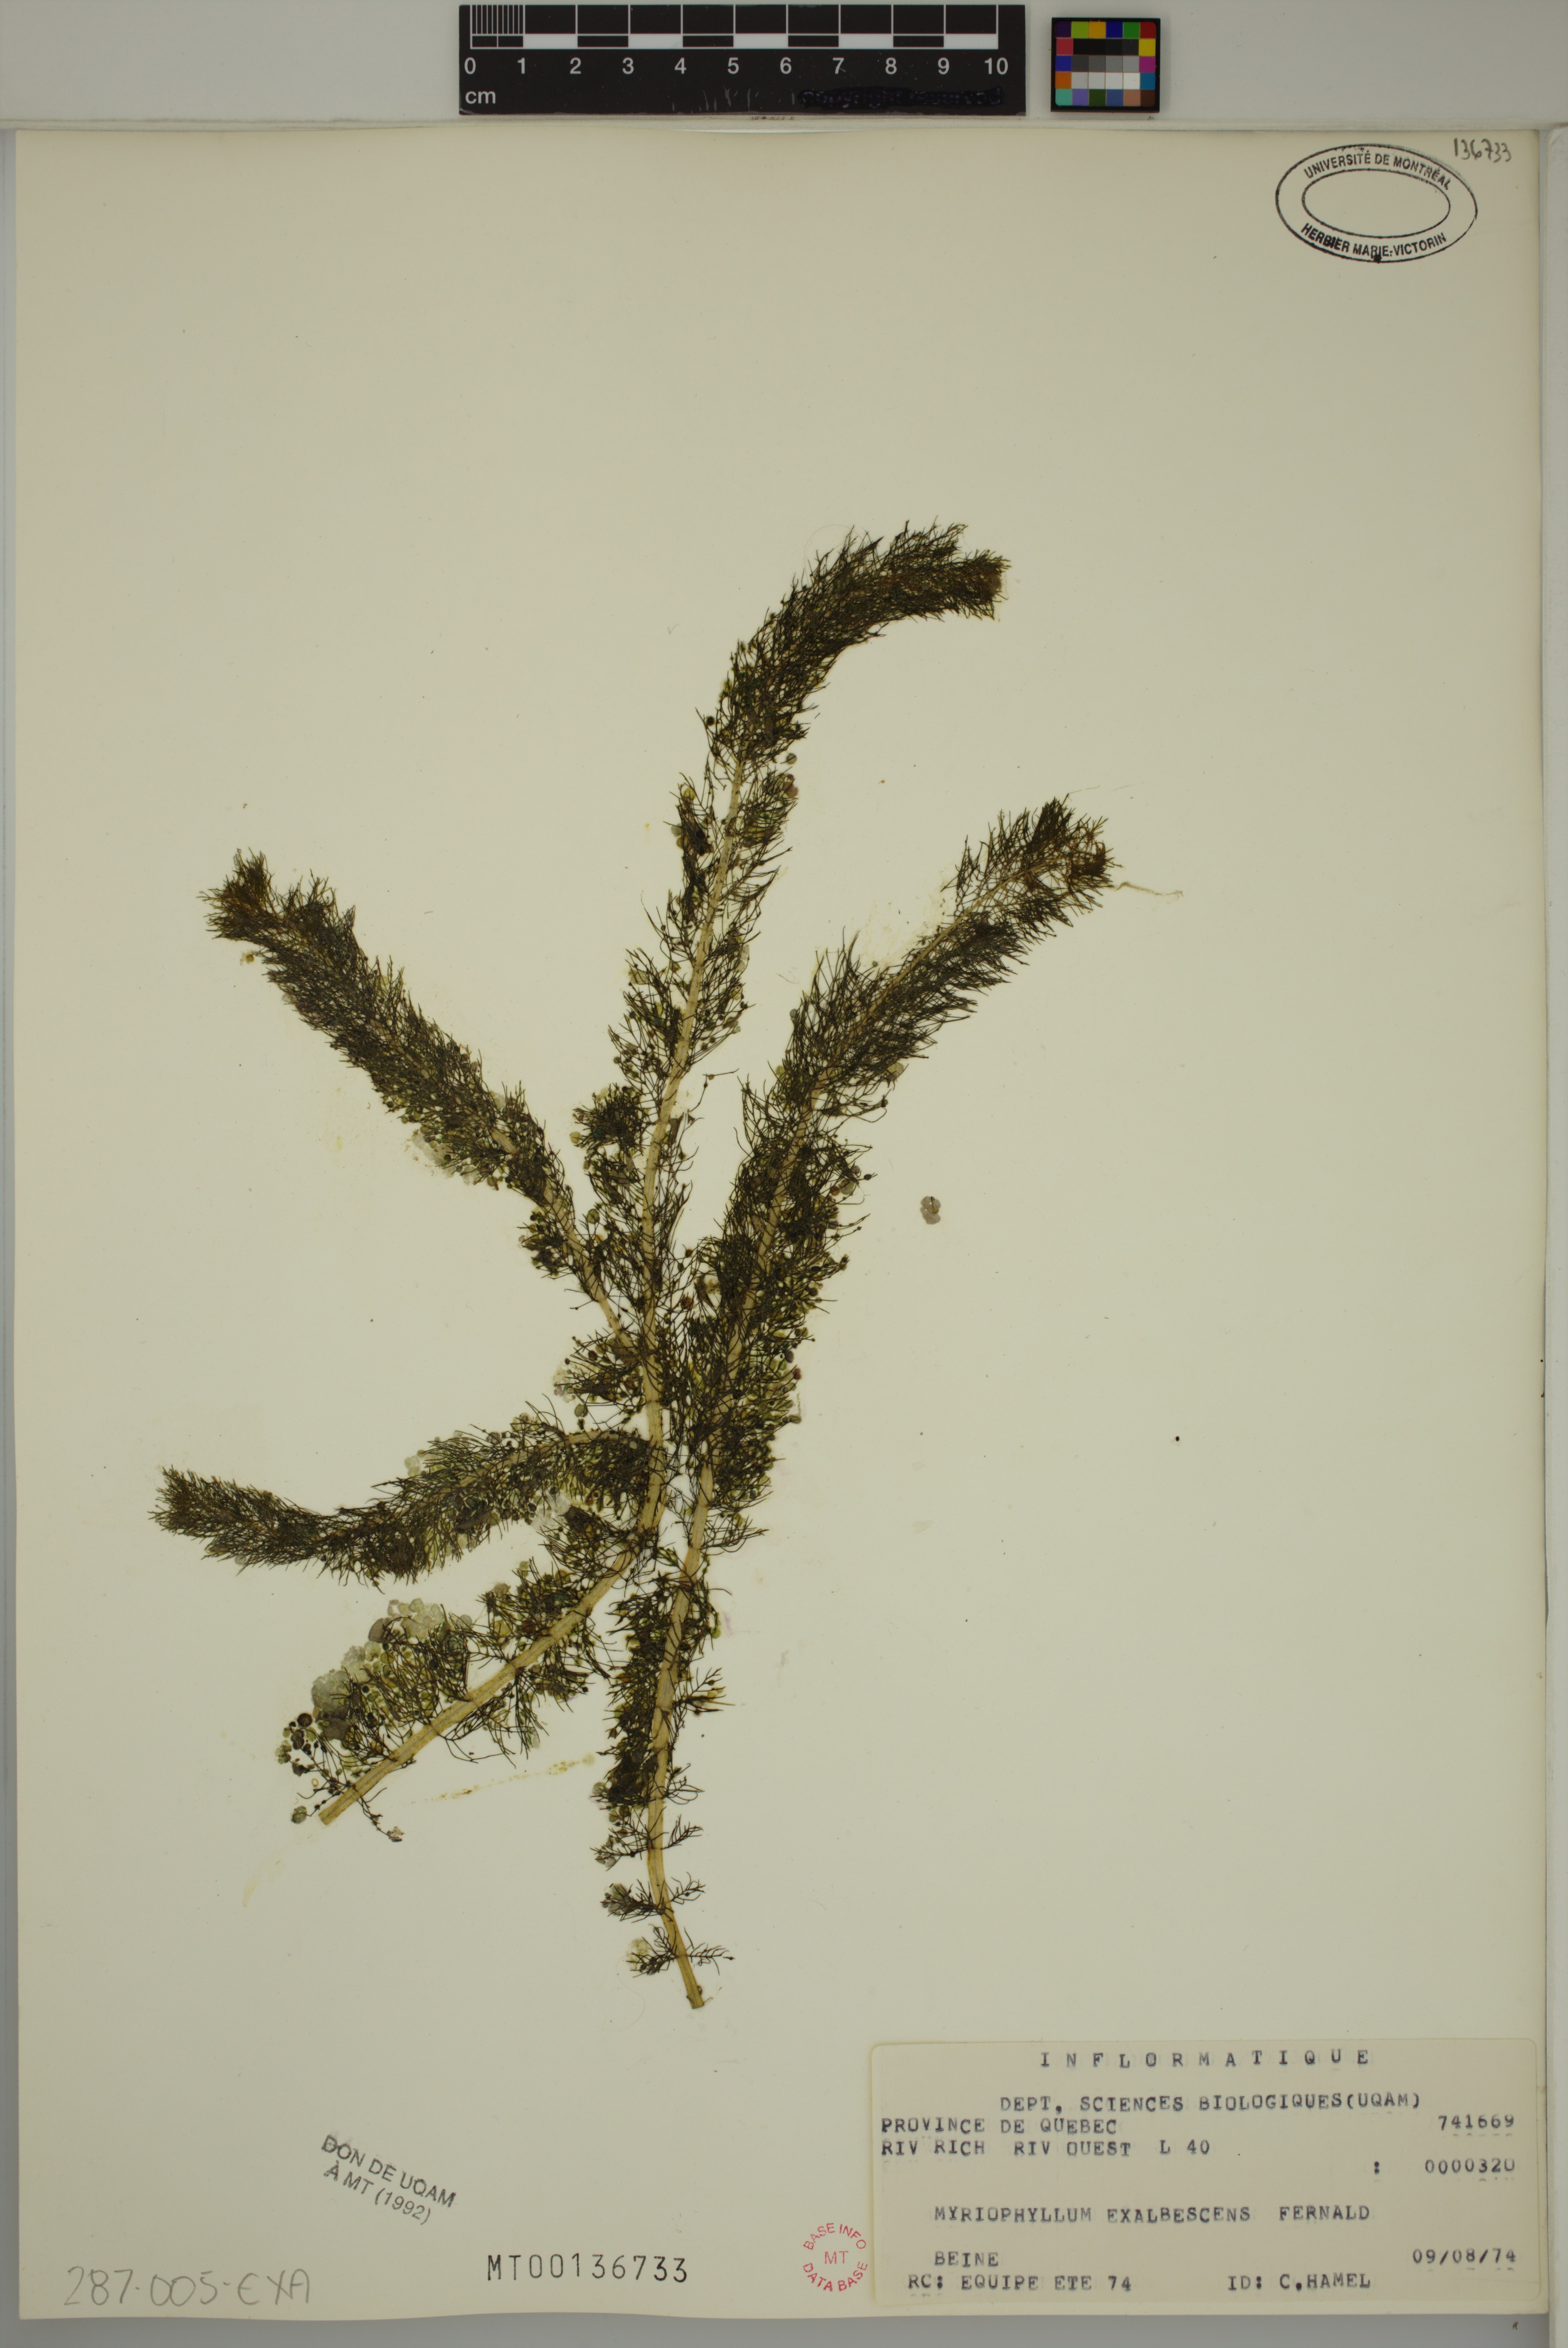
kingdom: Plantae
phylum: Tracheophyta
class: Magnoliopsida
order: Saxifragales
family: Haloragaceae
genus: Myriophyllum
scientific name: Myriophyllum sibiricum
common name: Siberian water-milfoil
